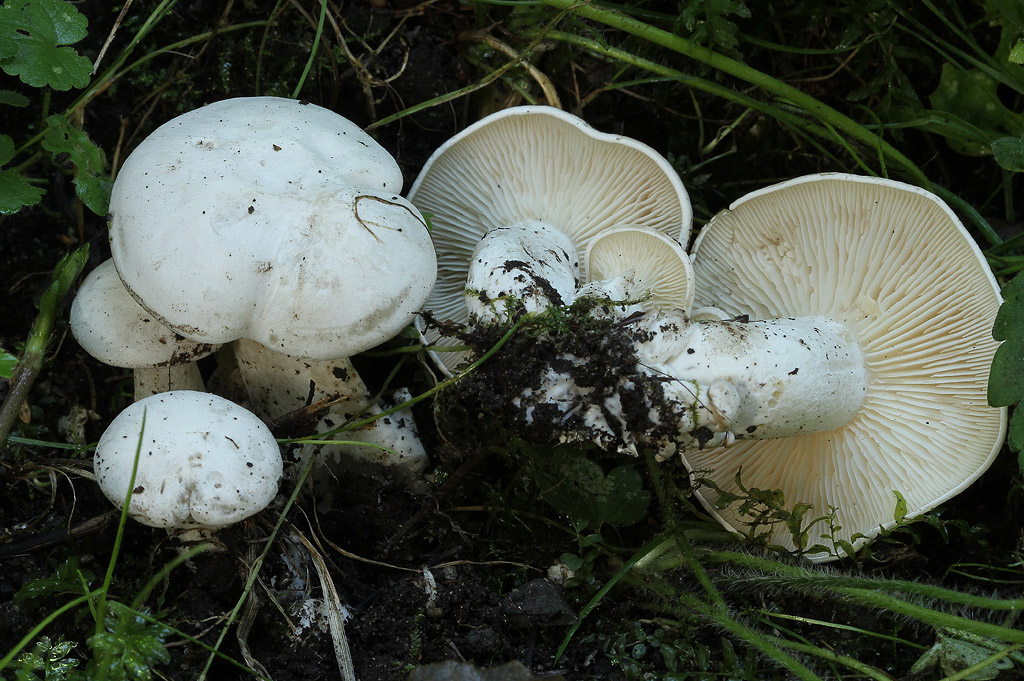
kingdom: Fungi
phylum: Basidiomycota
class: Agaricomycetes
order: Agaricales
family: Tricholomataceae
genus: Leucocybe
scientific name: Leucocybe connata
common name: knippe-tragthat
